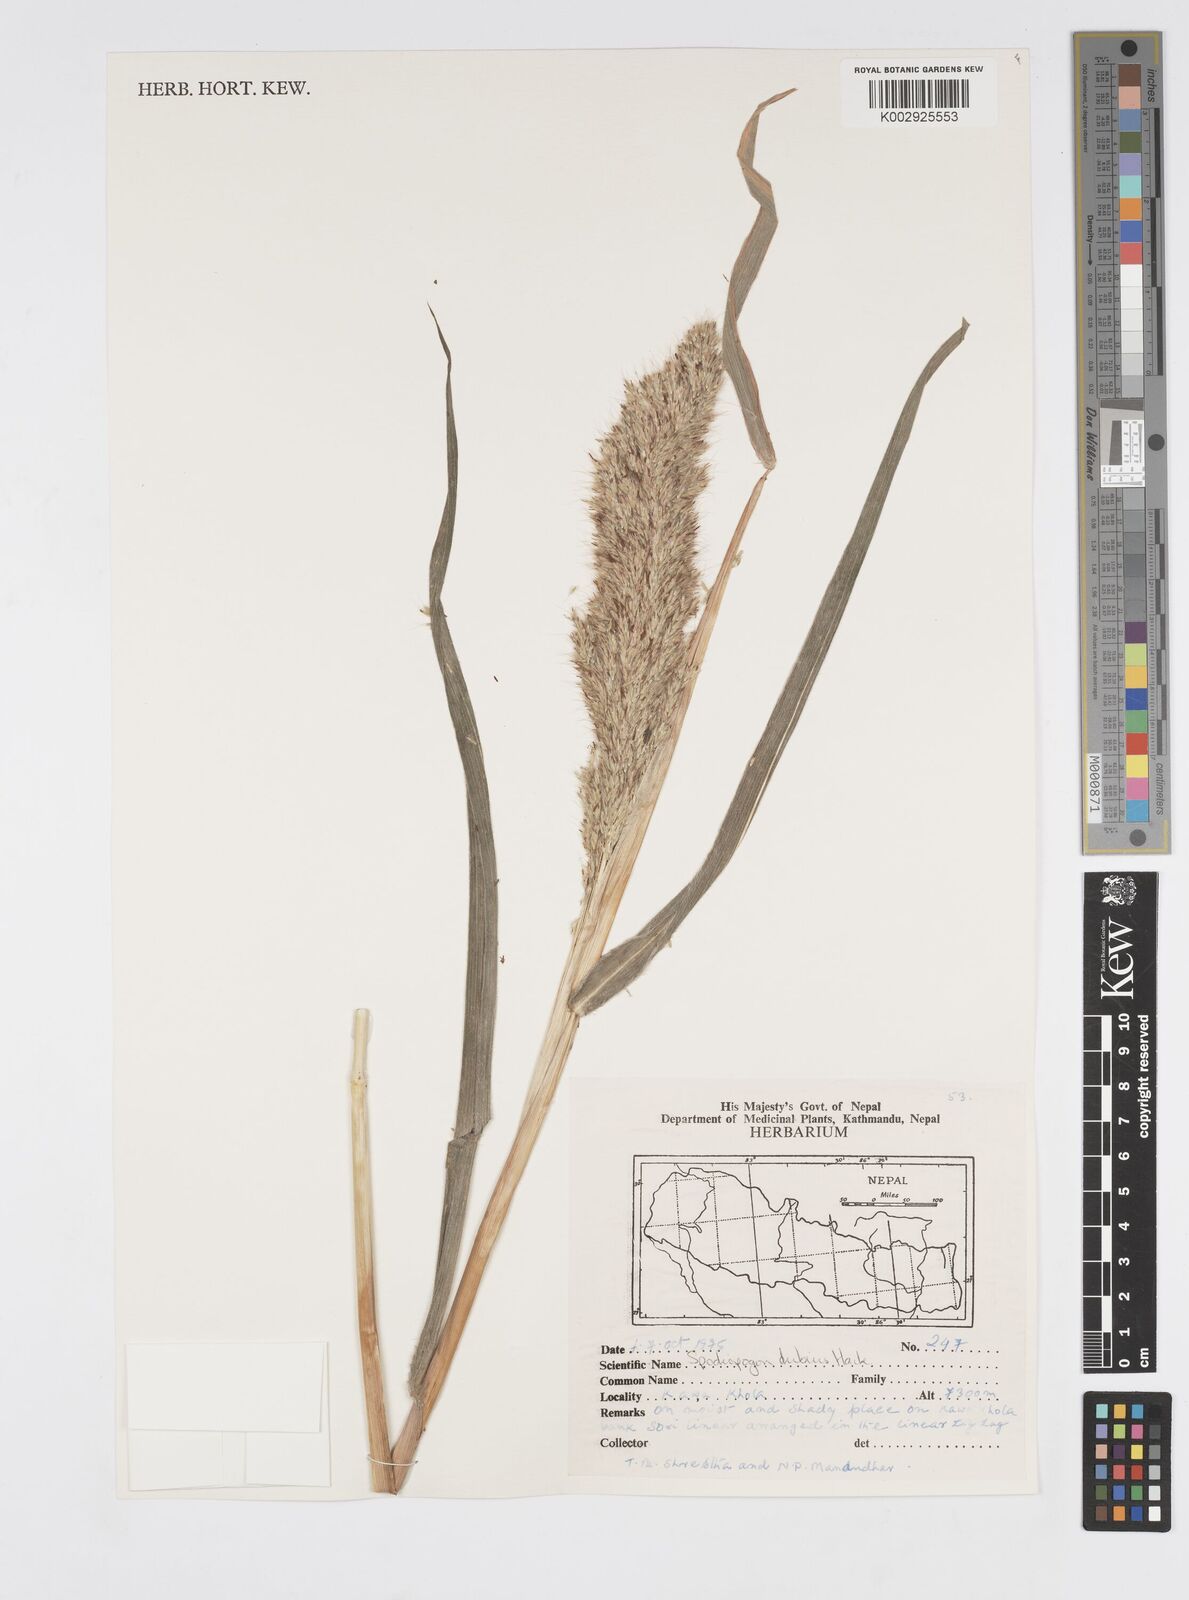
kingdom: Plantae
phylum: Tracheophyta
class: Liliopsida
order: Poales
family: Poaceae
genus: Spodiopogon
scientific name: Spodiopogon dubius
